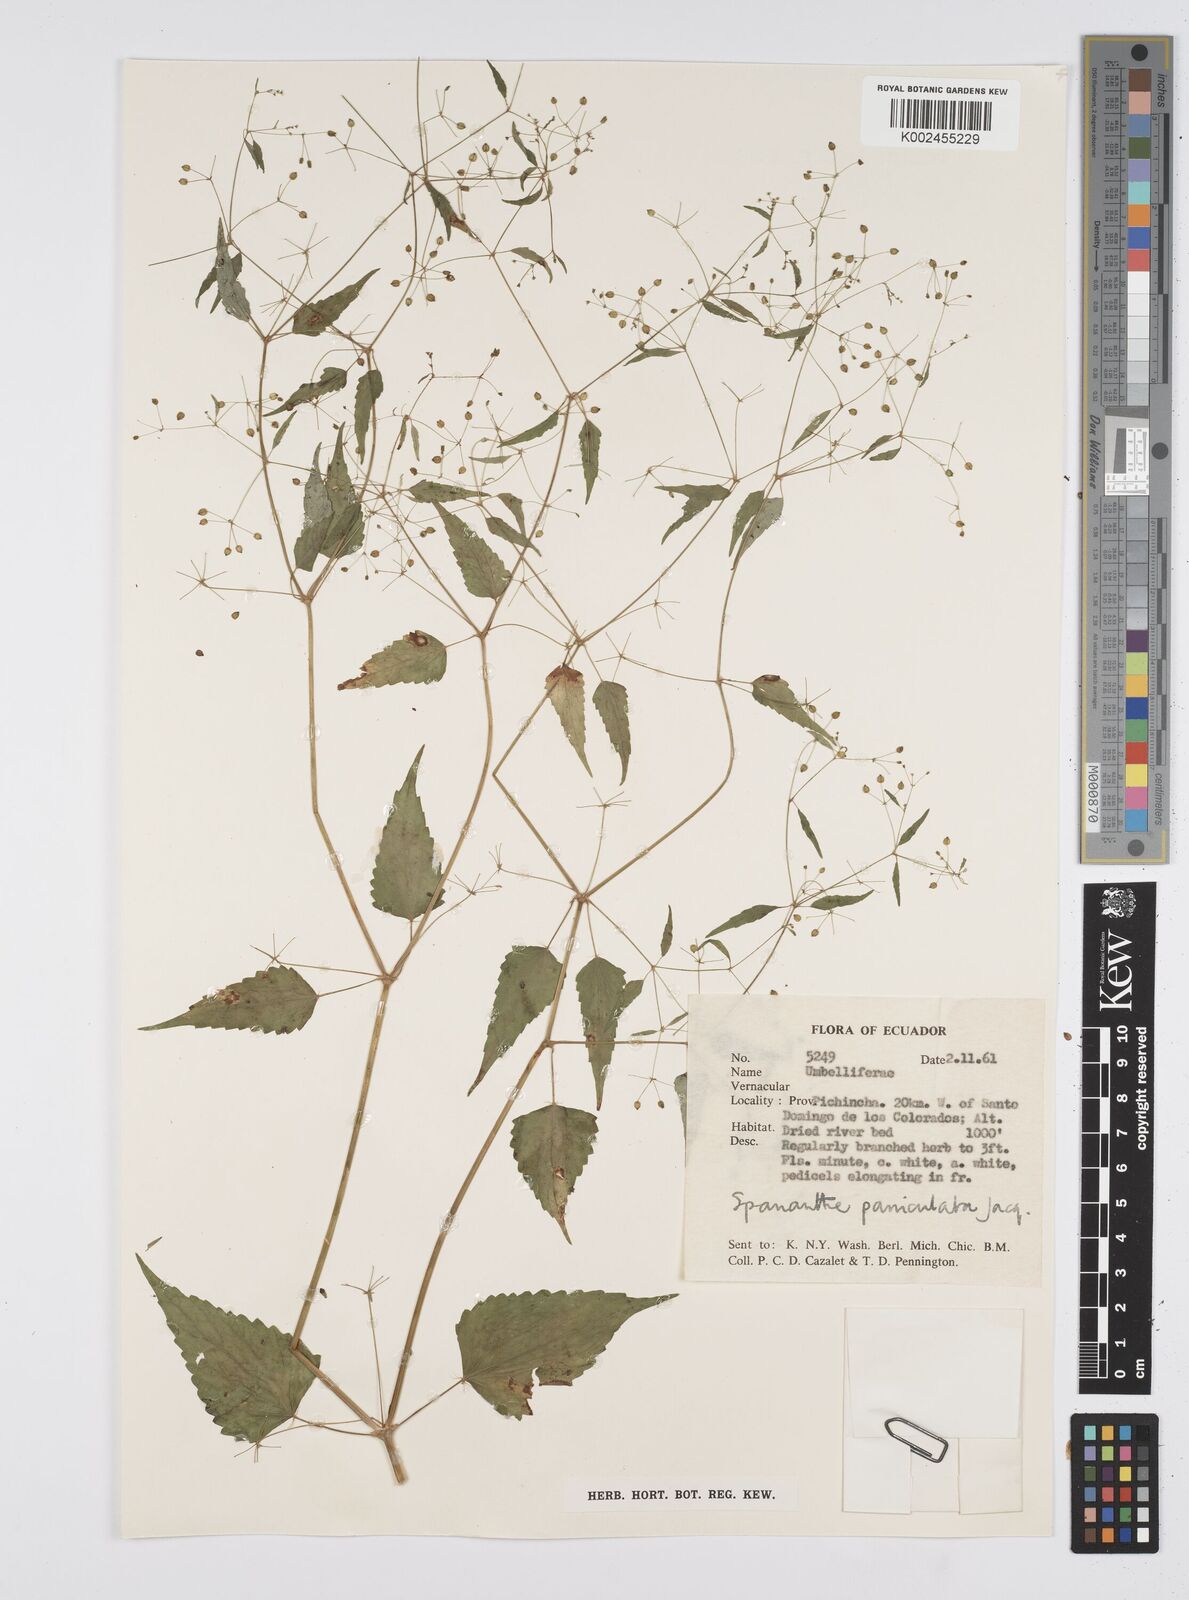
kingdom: Plantae
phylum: Tracheophyta
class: Magnoliopsida
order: Apiales
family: Apiaceae
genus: Azorella
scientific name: Azorella
